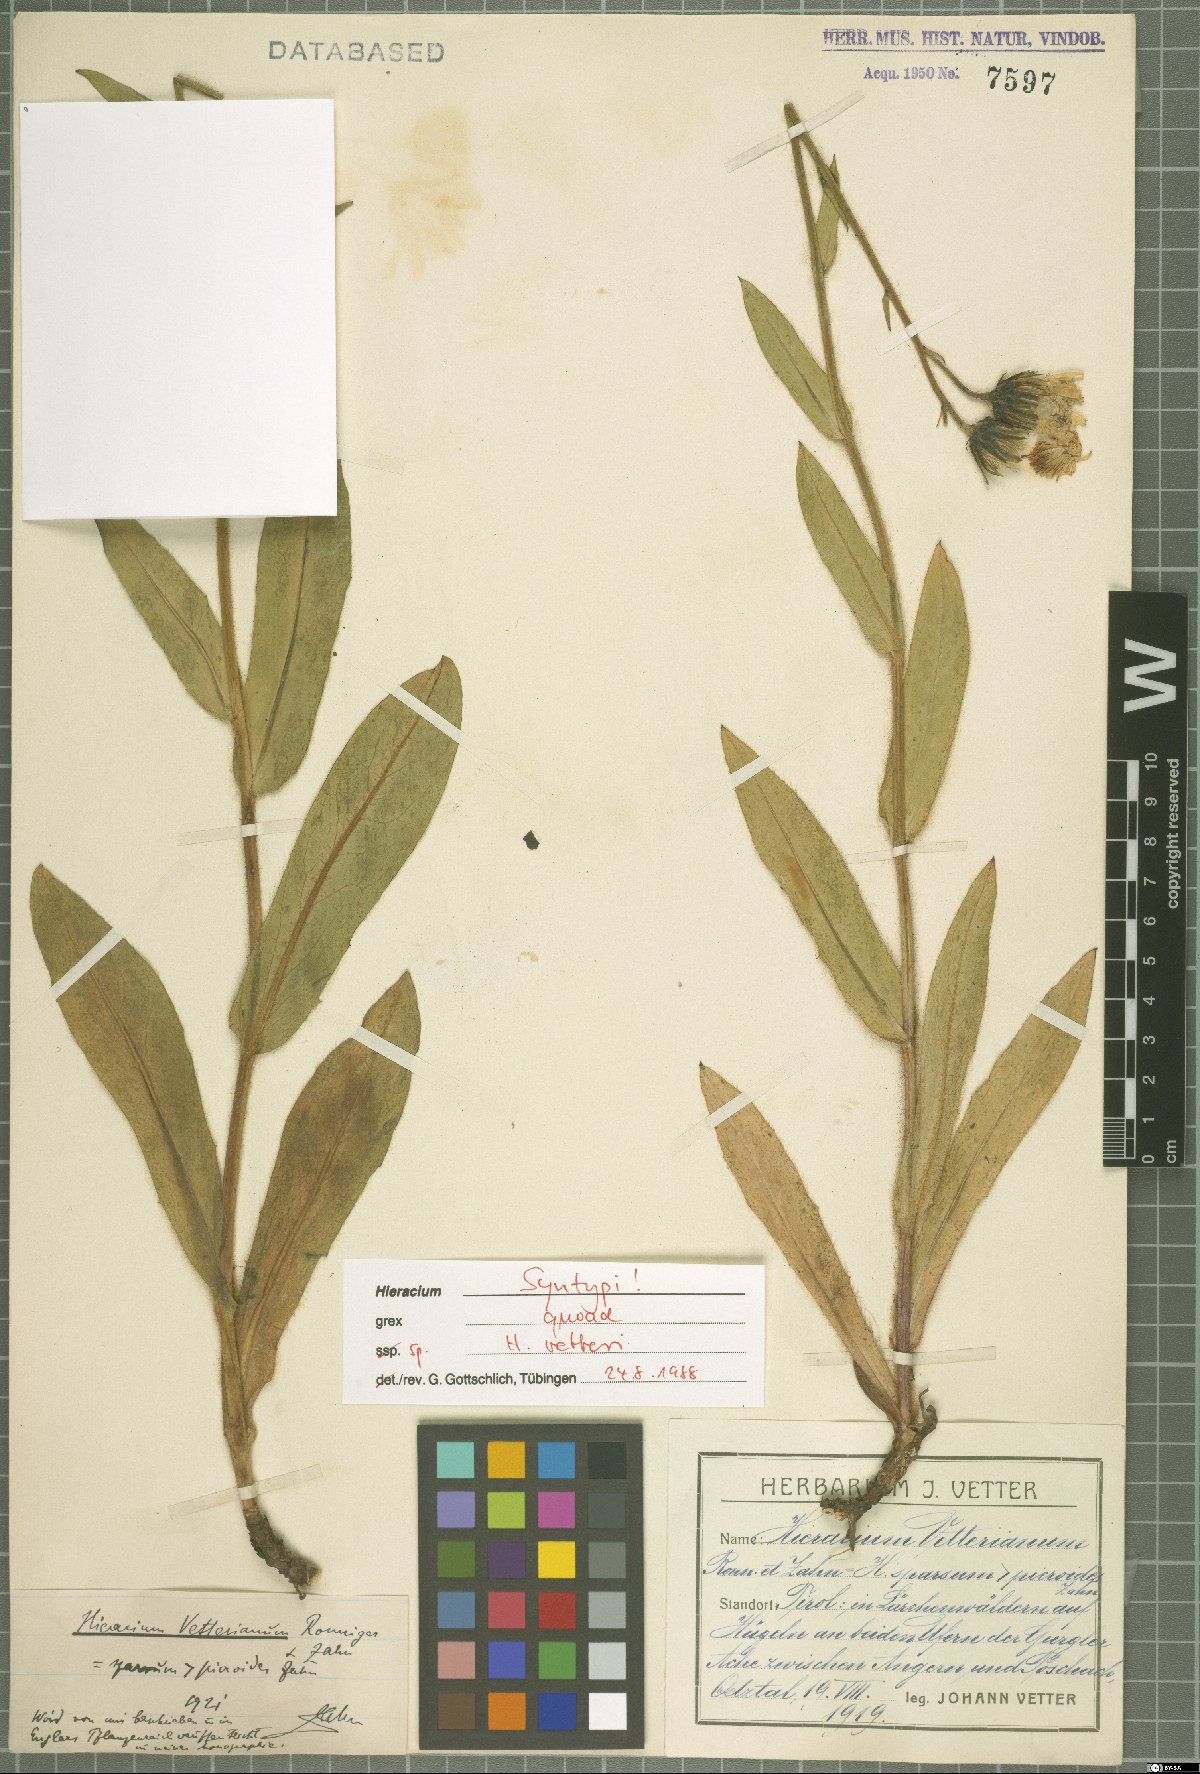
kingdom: Plantae
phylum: Tracheophyta
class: Magnoliopsida
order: Asterales
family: Asteraceae
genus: Hieracium
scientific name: Hieracium vetteri
